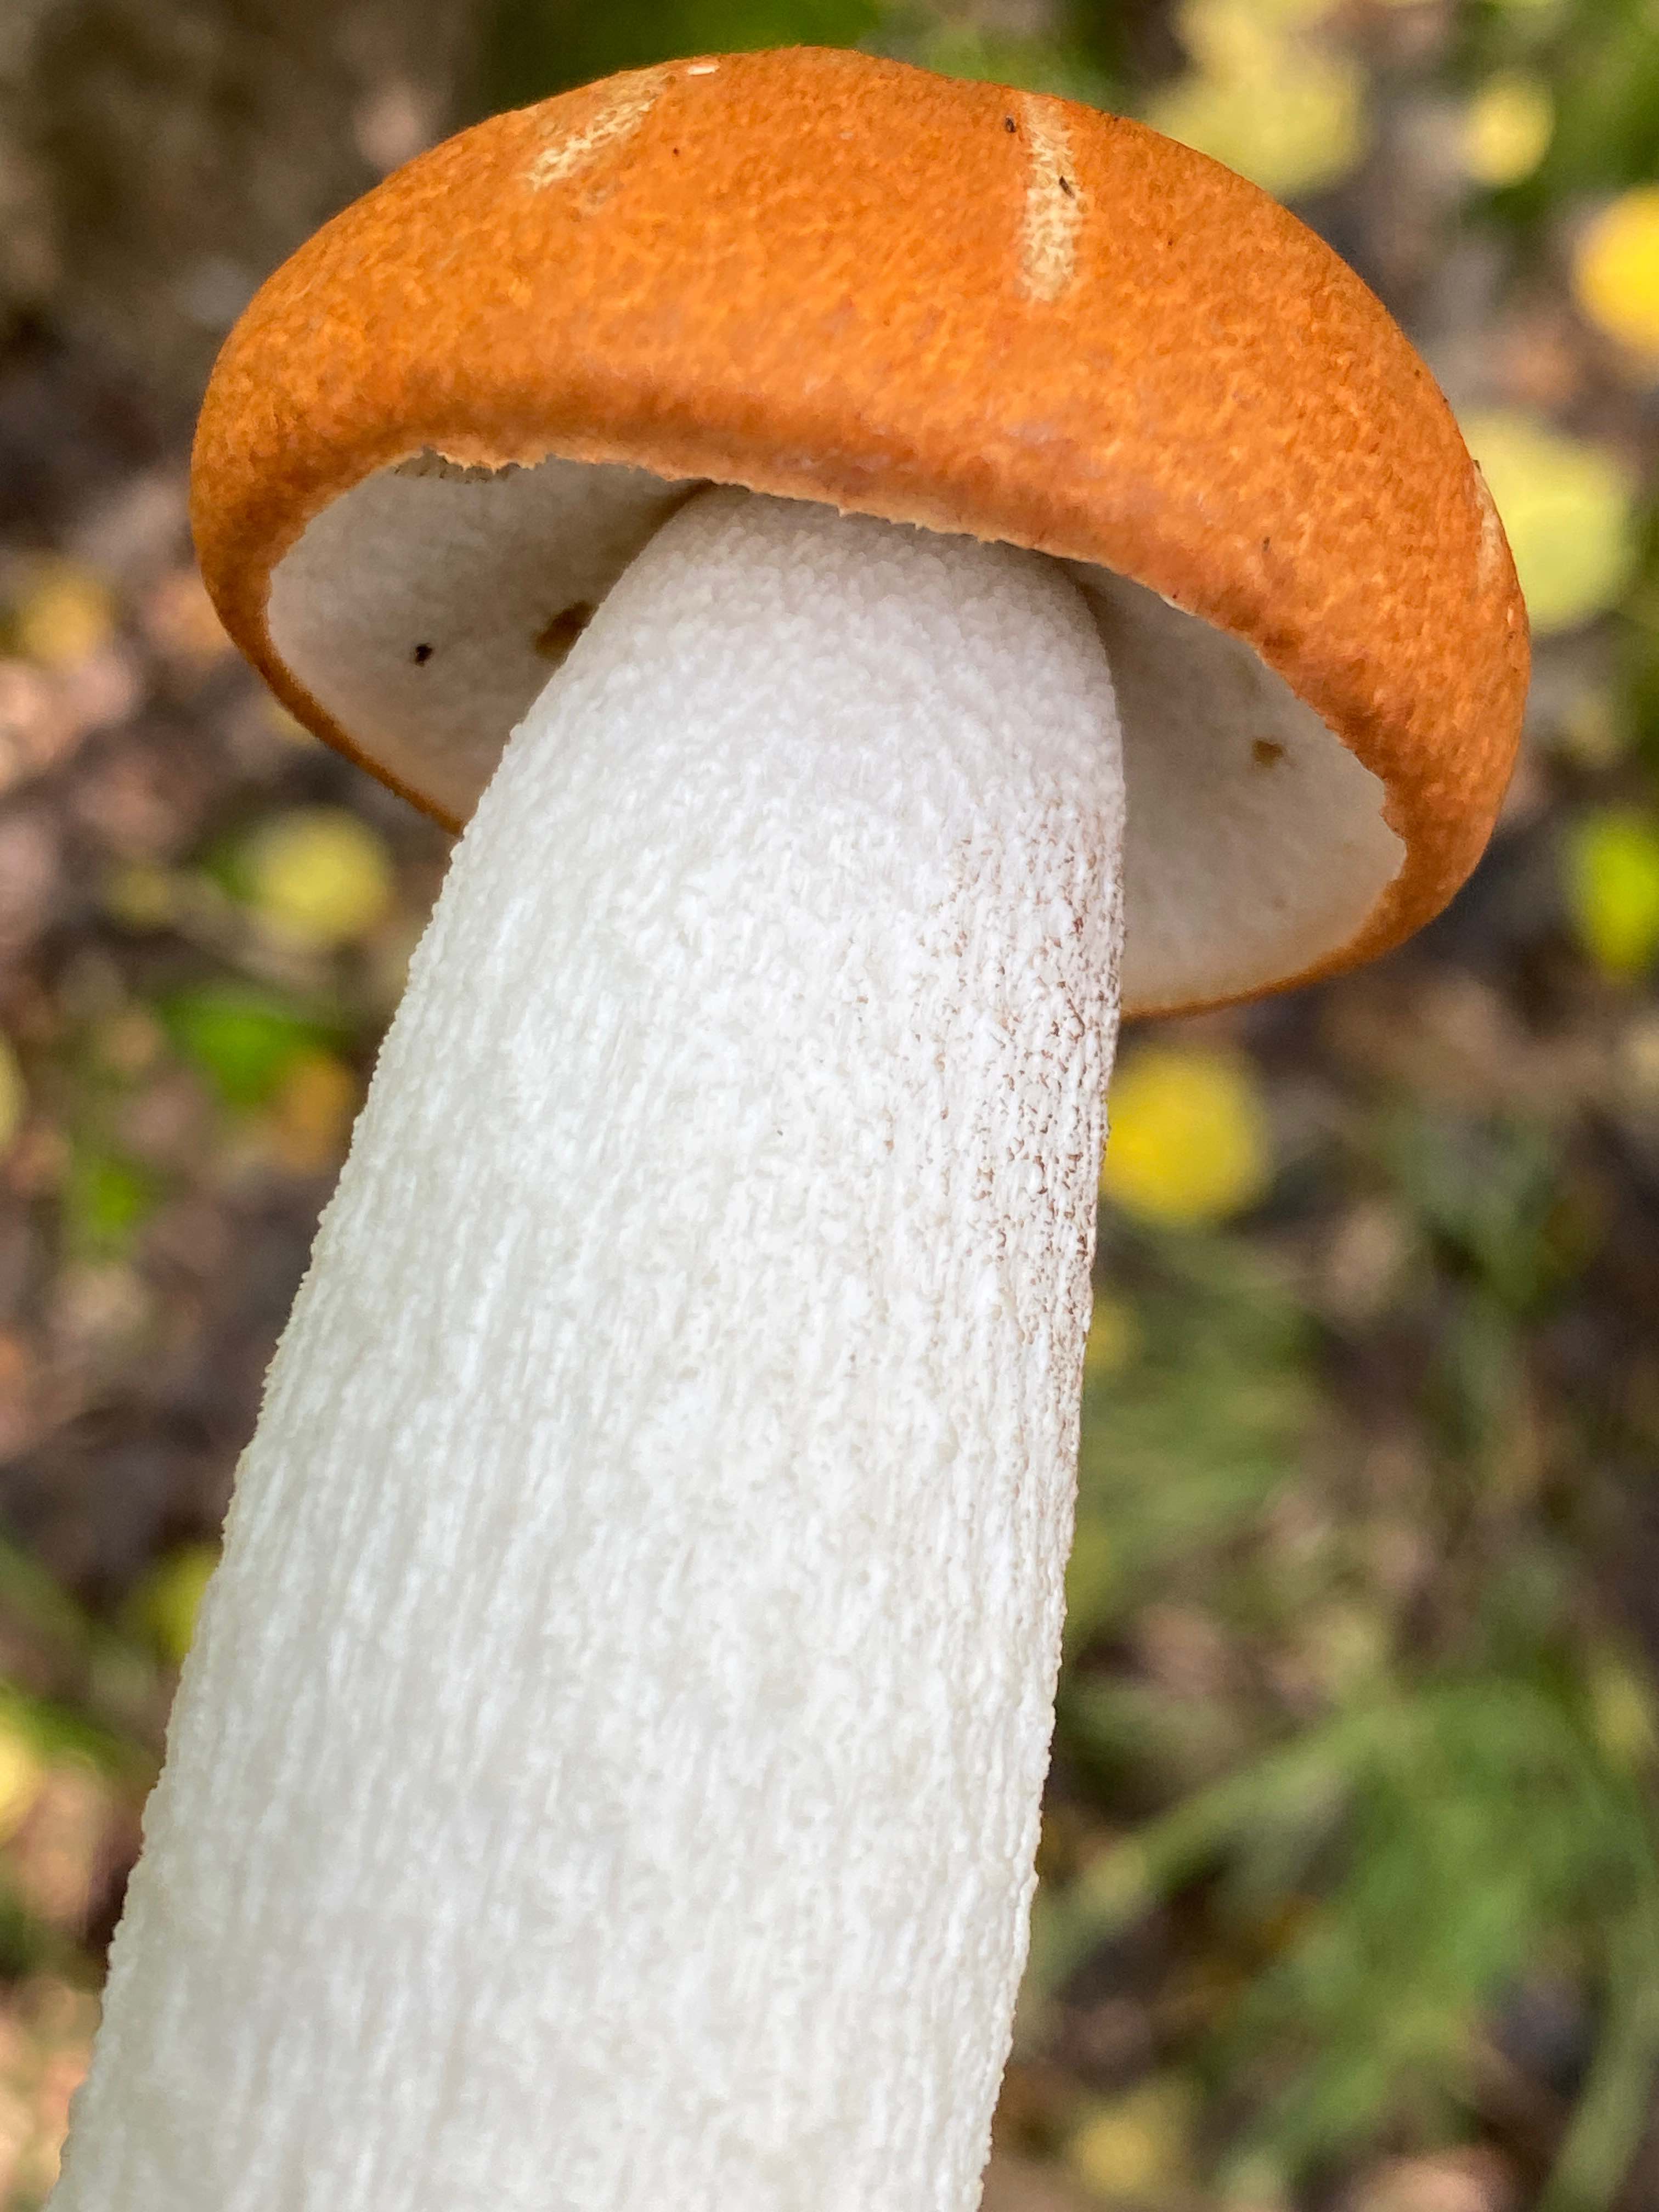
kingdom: Fungi
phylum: Basidiomycota
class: Agaricomycetes
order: Boletales
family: Boletaceae
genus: Leccinum
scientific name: Leccinum albostipitatum
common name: aspe-skælrørhat
